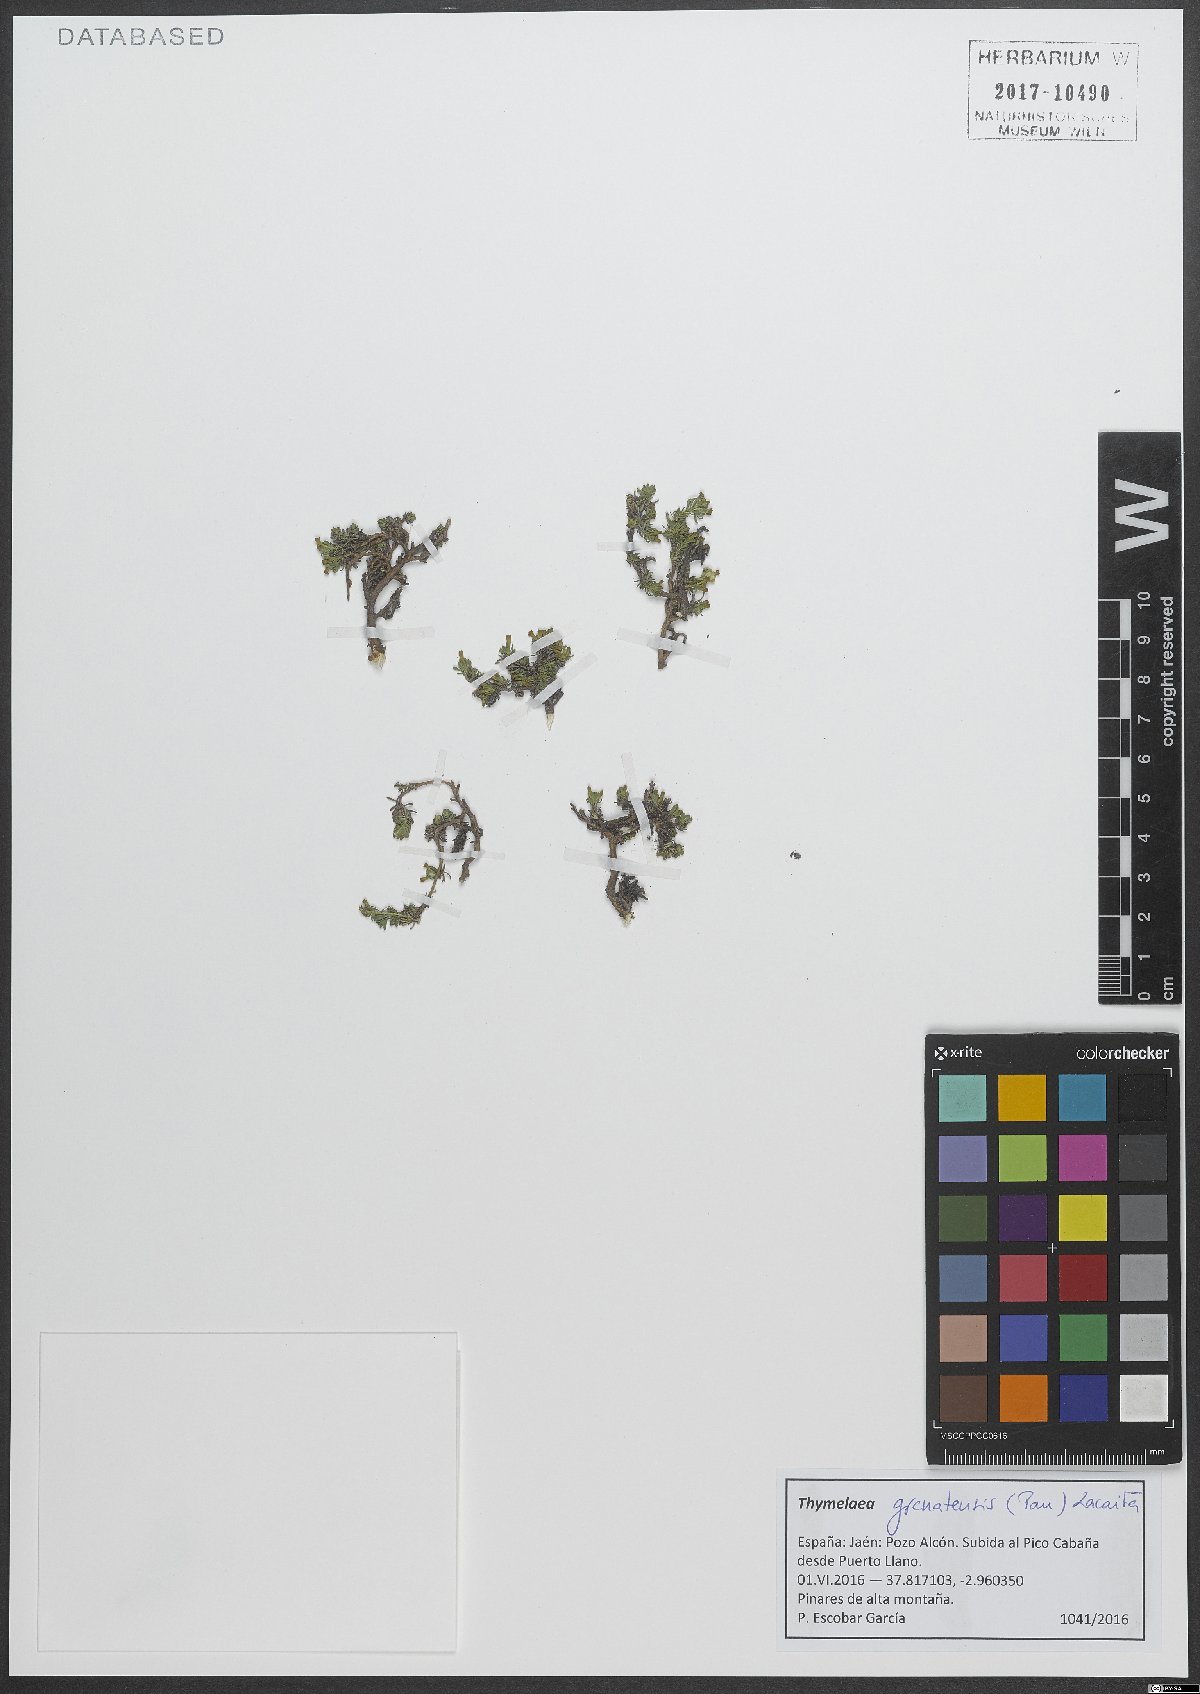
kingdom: Plantae
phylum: Tracheophyta
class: Magnoliopsida
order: Malvales
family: Thymelaeaceae
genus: Thymelaea
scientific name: Thymelaea granatensis
